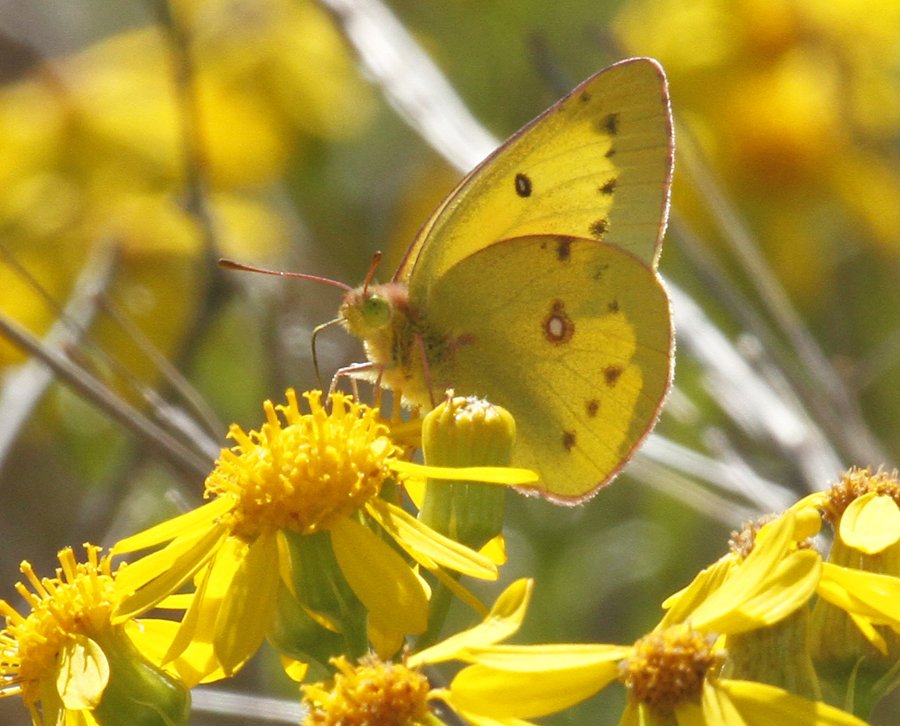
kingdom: Animalia
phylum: Arthropoda
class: Insecta
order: Lepidoptera
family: Pieridae
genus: Colias
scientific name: Colias eurytheme
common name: Orange Sulphur
